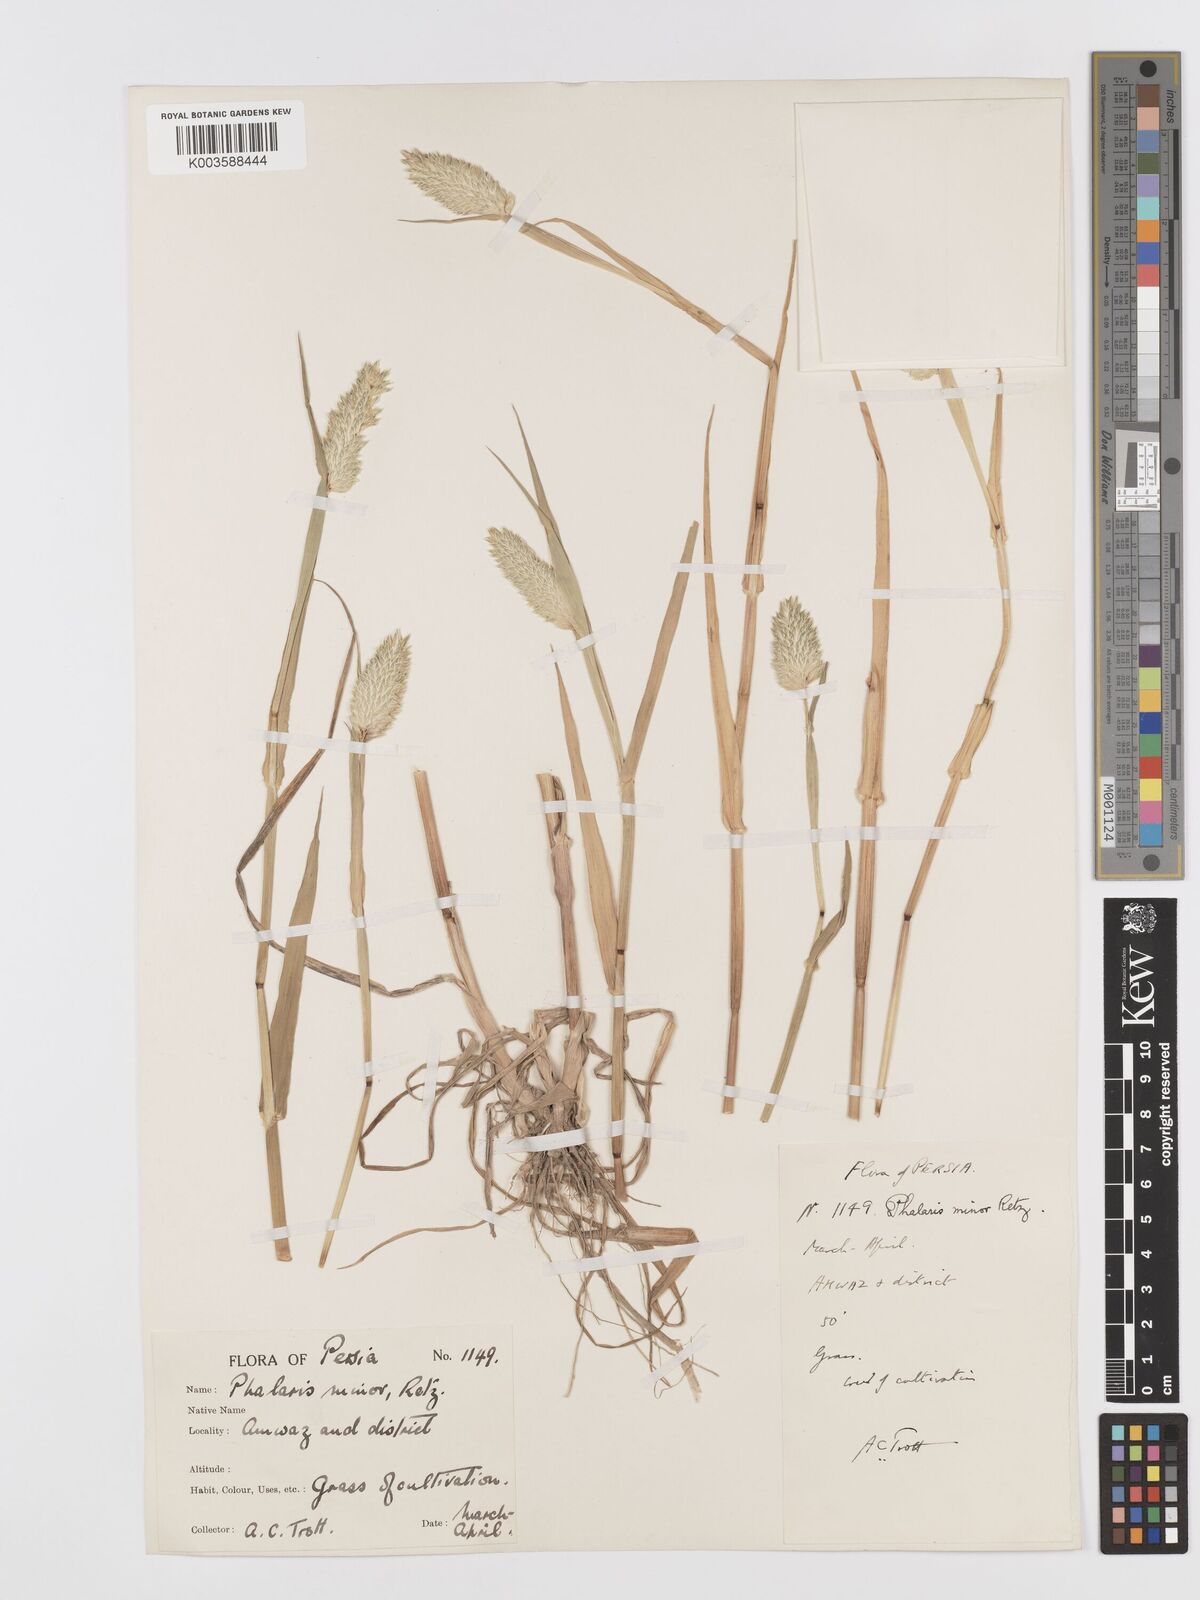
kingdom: Plantae
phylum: Tracheophyta
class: Liliopsida
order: Poales
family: Poaceae
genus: Phalaris
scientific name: Phalaris minor
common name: Littleseed canarygrass
